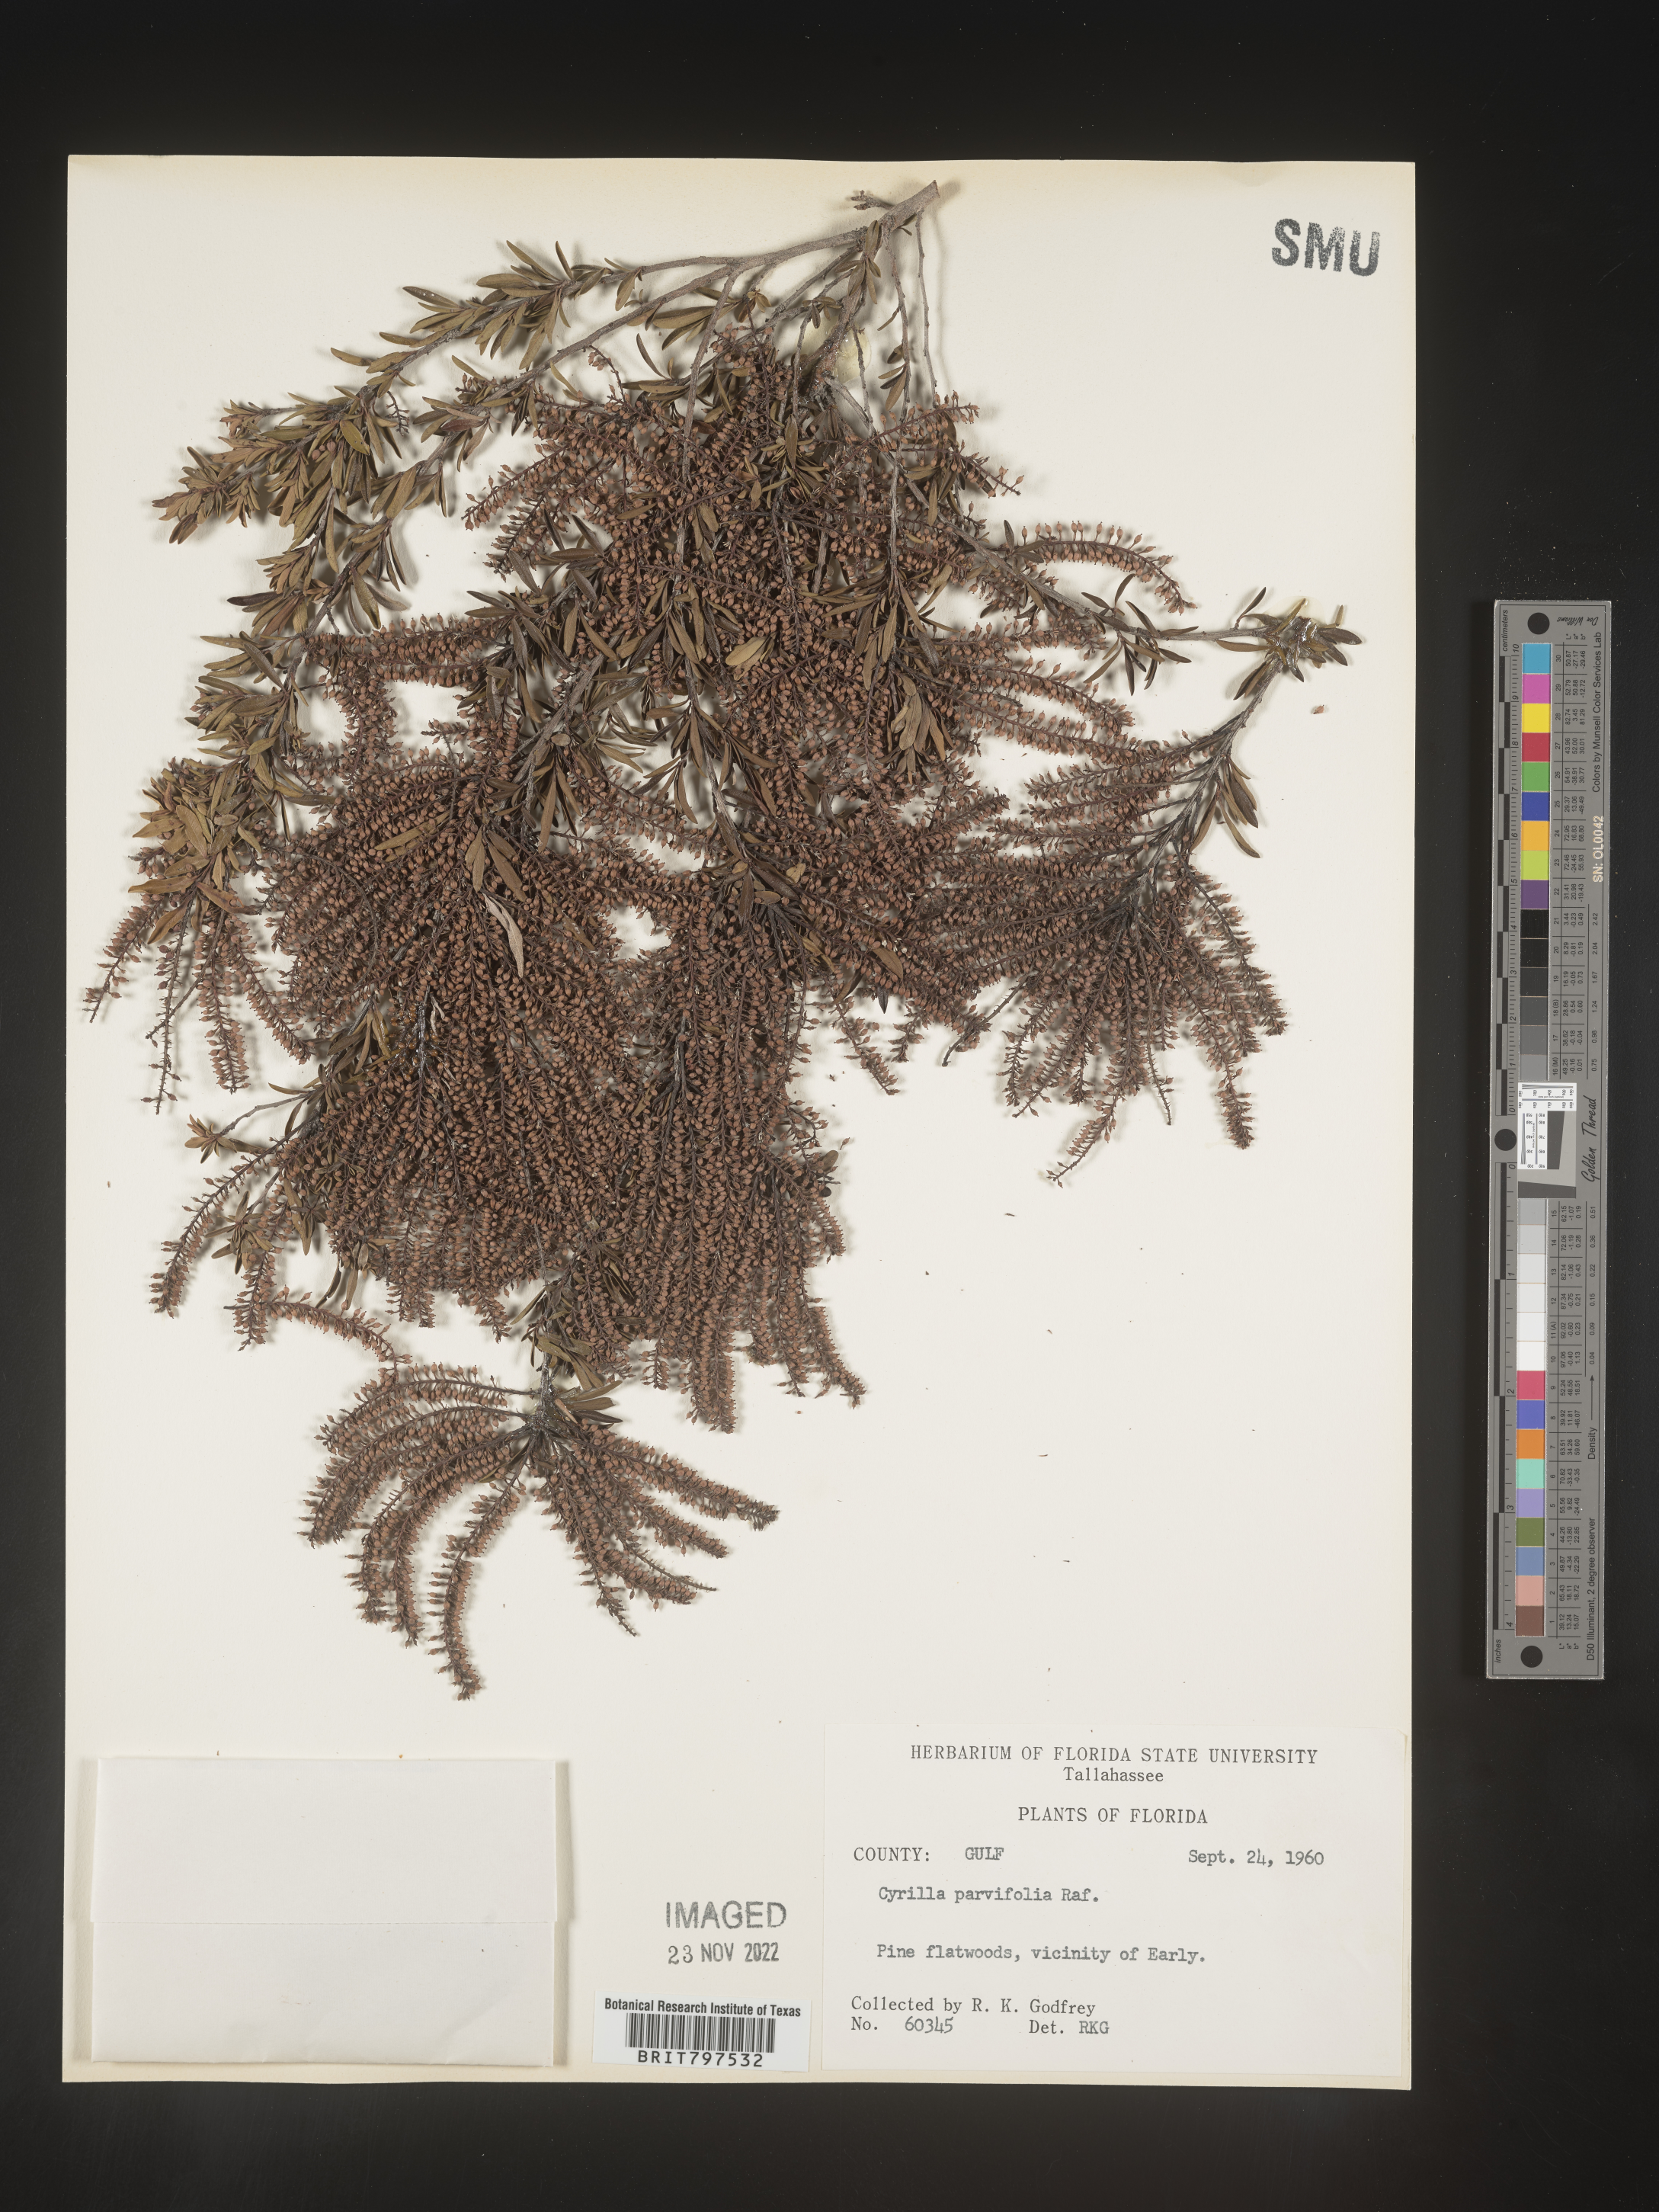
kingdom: Plantae
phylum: Tracheophyta
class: Magnoliopsida
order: Ericales
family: Cyrillaceae
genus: Cyrilla
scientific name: Cyrilla racemiflora
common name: Black titi
